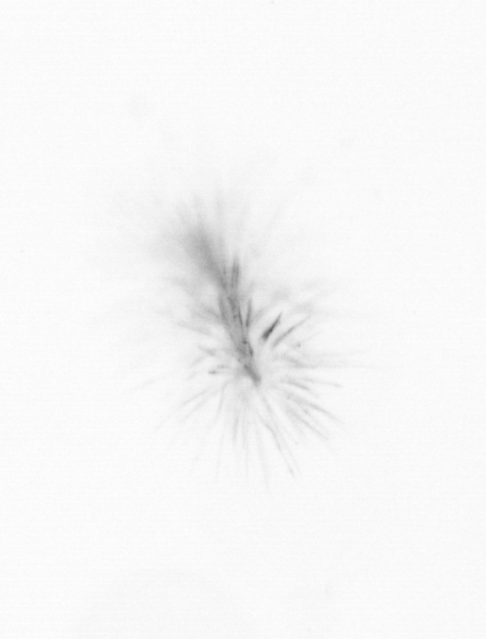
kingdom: Chromista
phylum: Ochrophyta
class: Bacillariophyceae
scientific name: Bacillariophyceae
